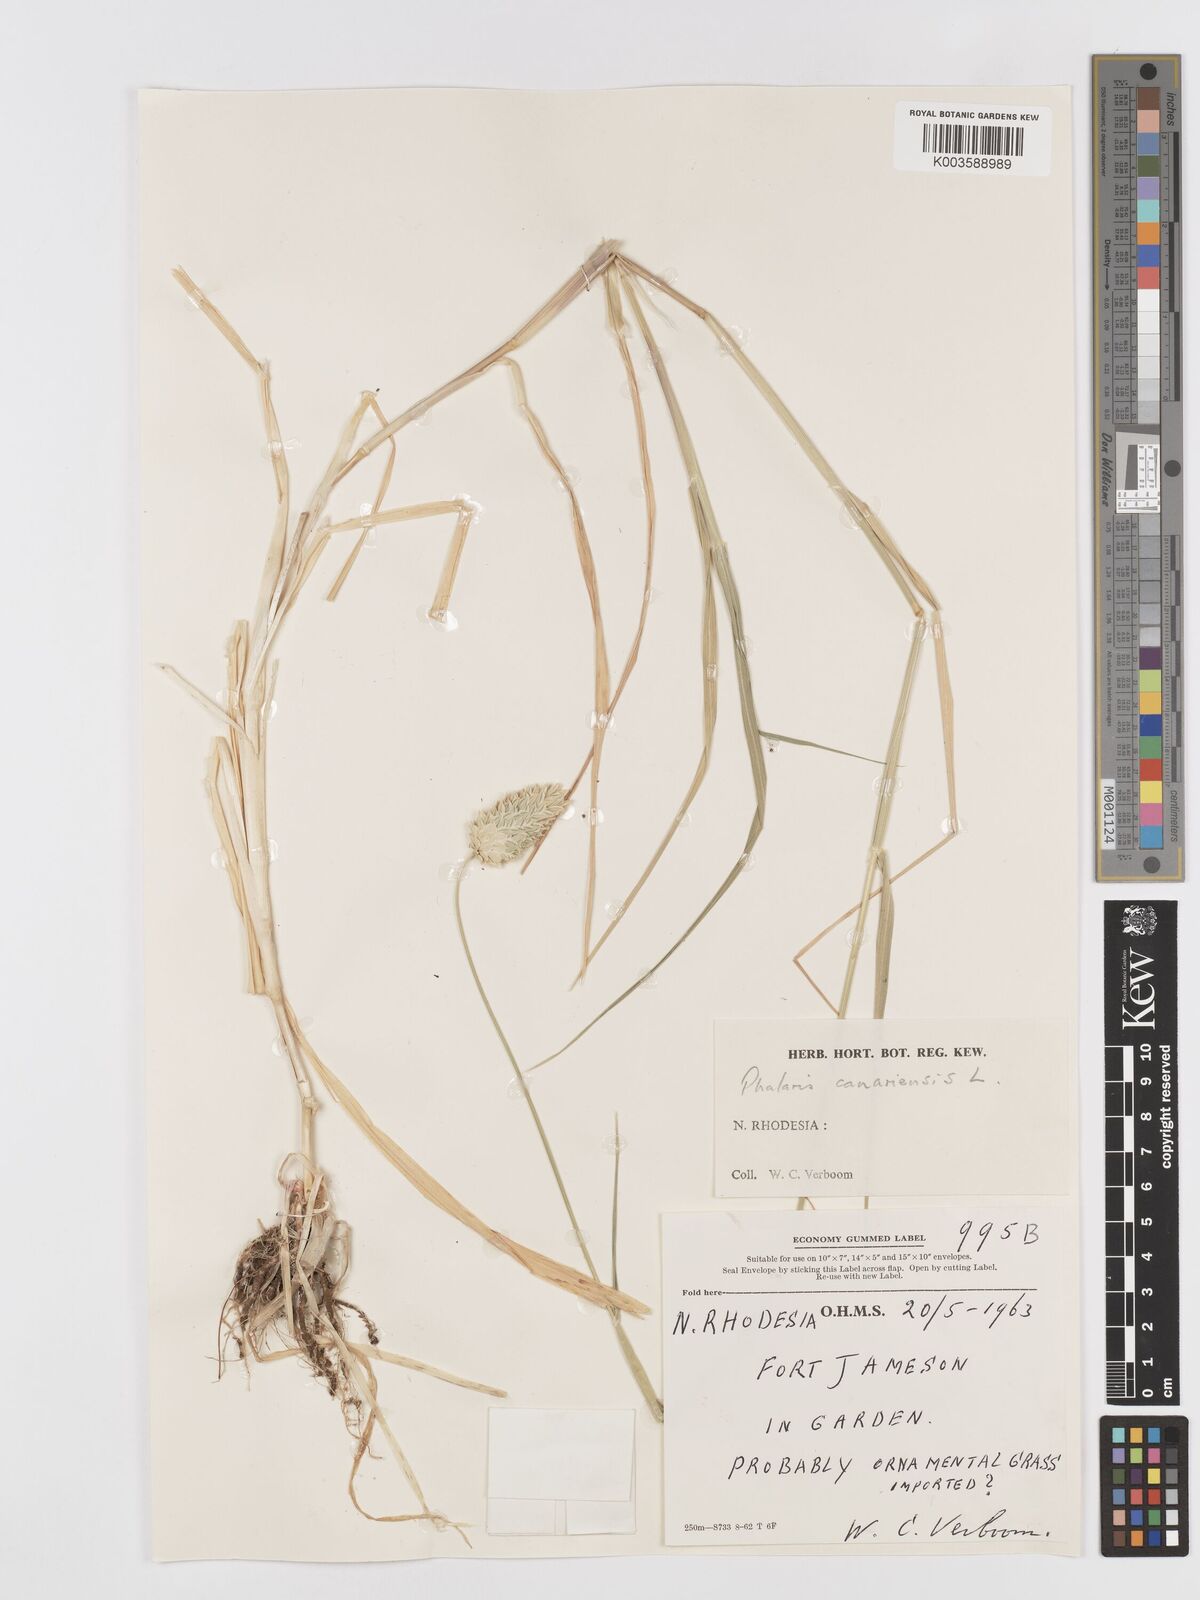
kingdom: Plantae
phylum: Tracheophyta
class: Liliopsida
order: Poales
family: Poaceae
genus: Phalaris
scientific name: Phalaris canariensis
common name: Annual canarygrass
